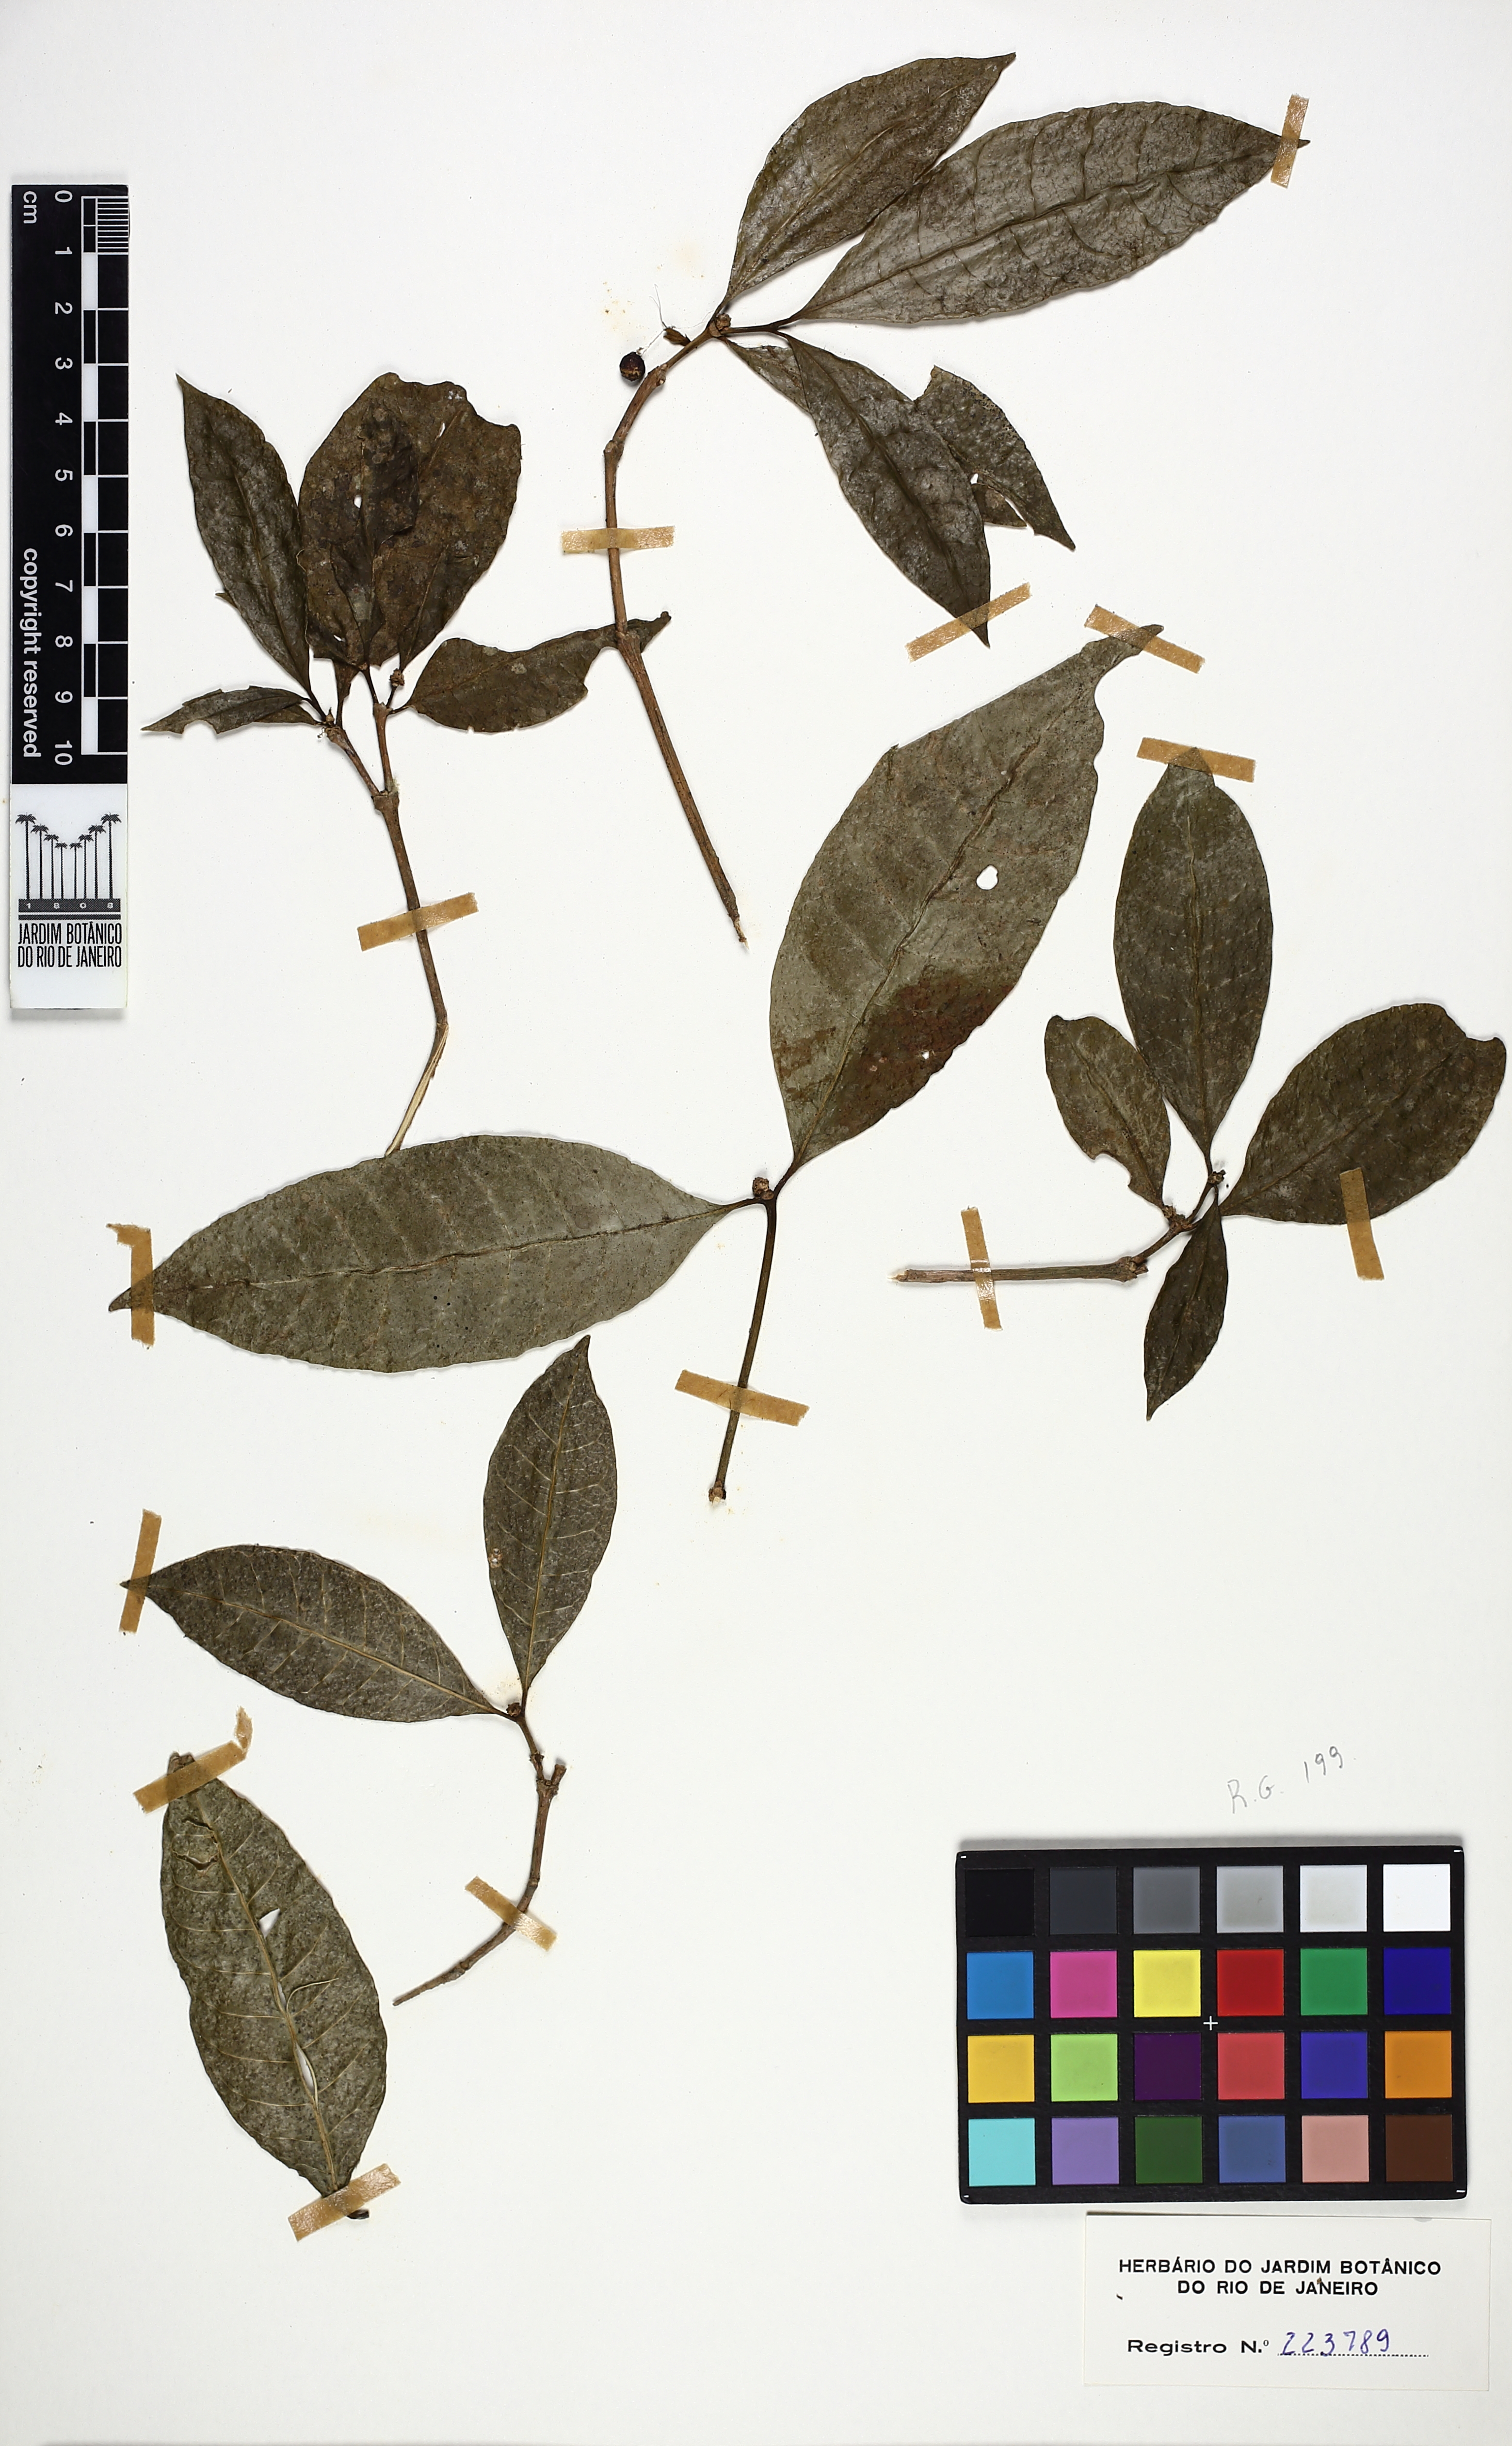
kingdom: Plantae
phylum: Tracheophyta
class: Magnoliopsida
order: Gentianales
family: Rubiaceae
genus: Eumachia
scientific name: Eumachia cephalantha
